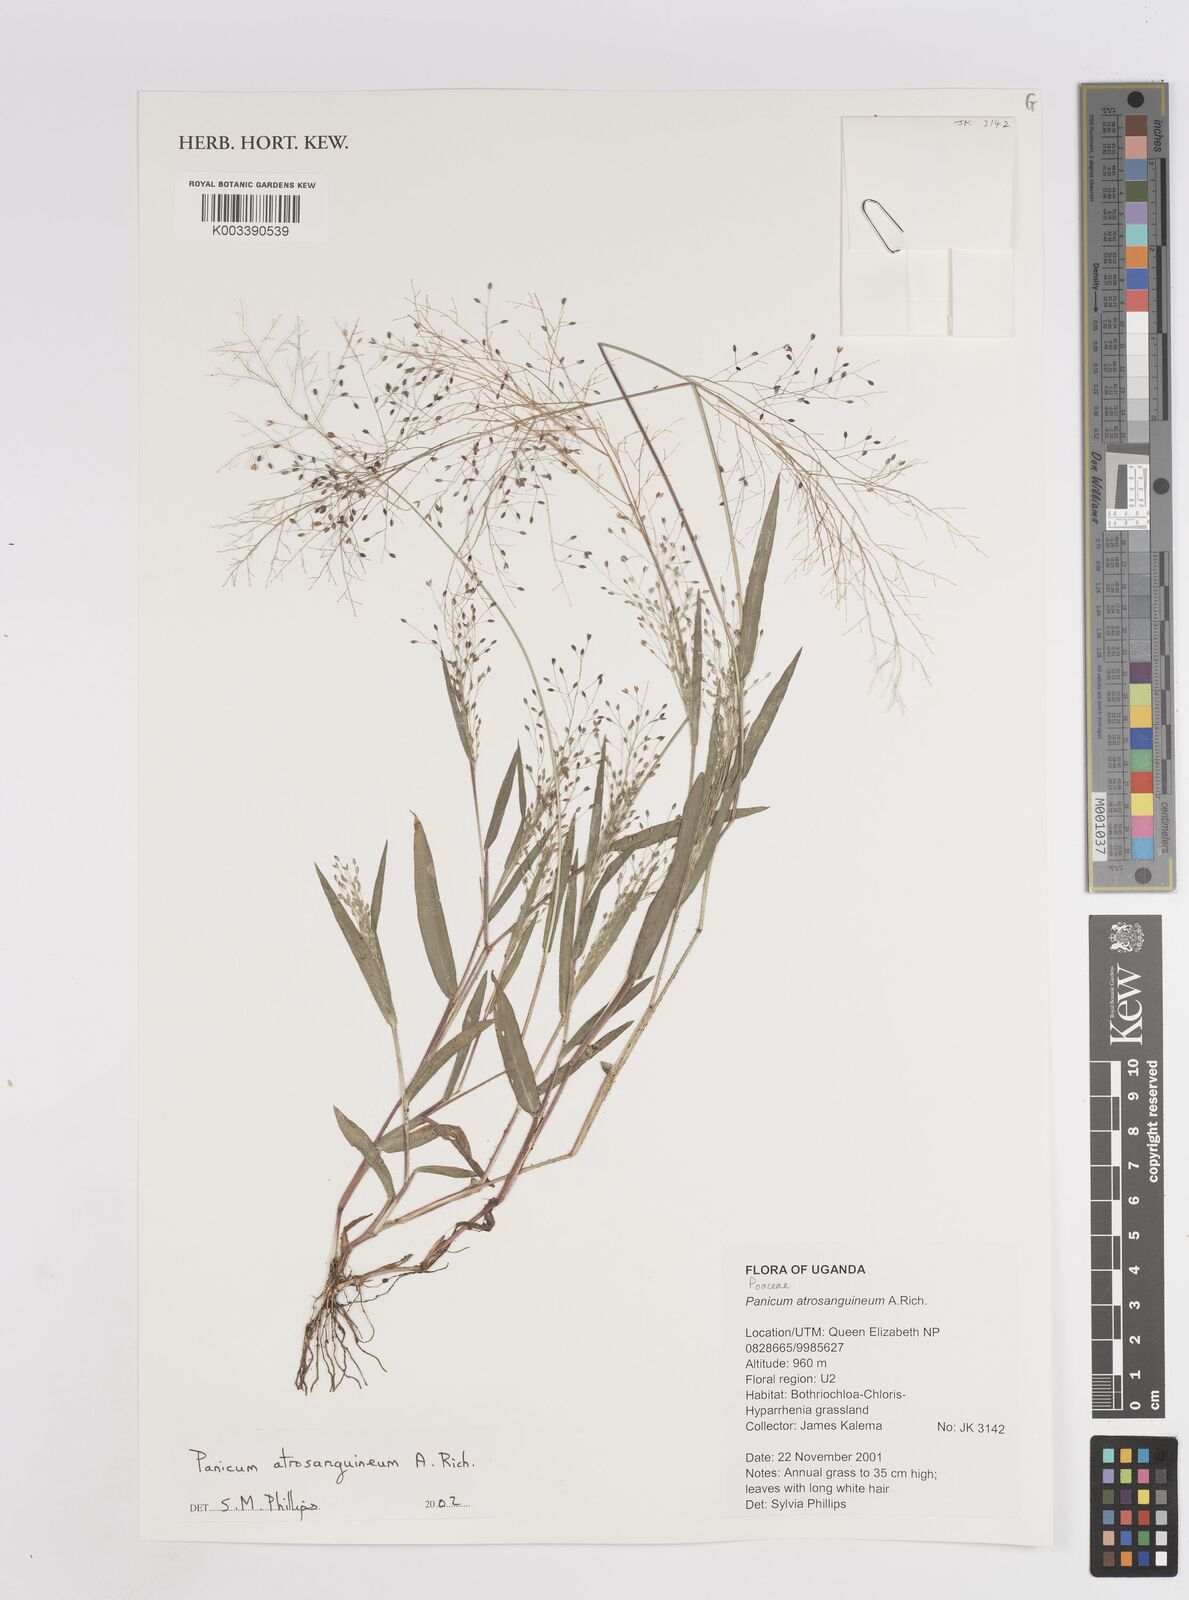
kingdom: Plantae
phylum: Tracheophyta
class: Liliopsida
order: Poales
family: Poaceae
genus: Panicum
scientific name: Panicum atrosanguineum
